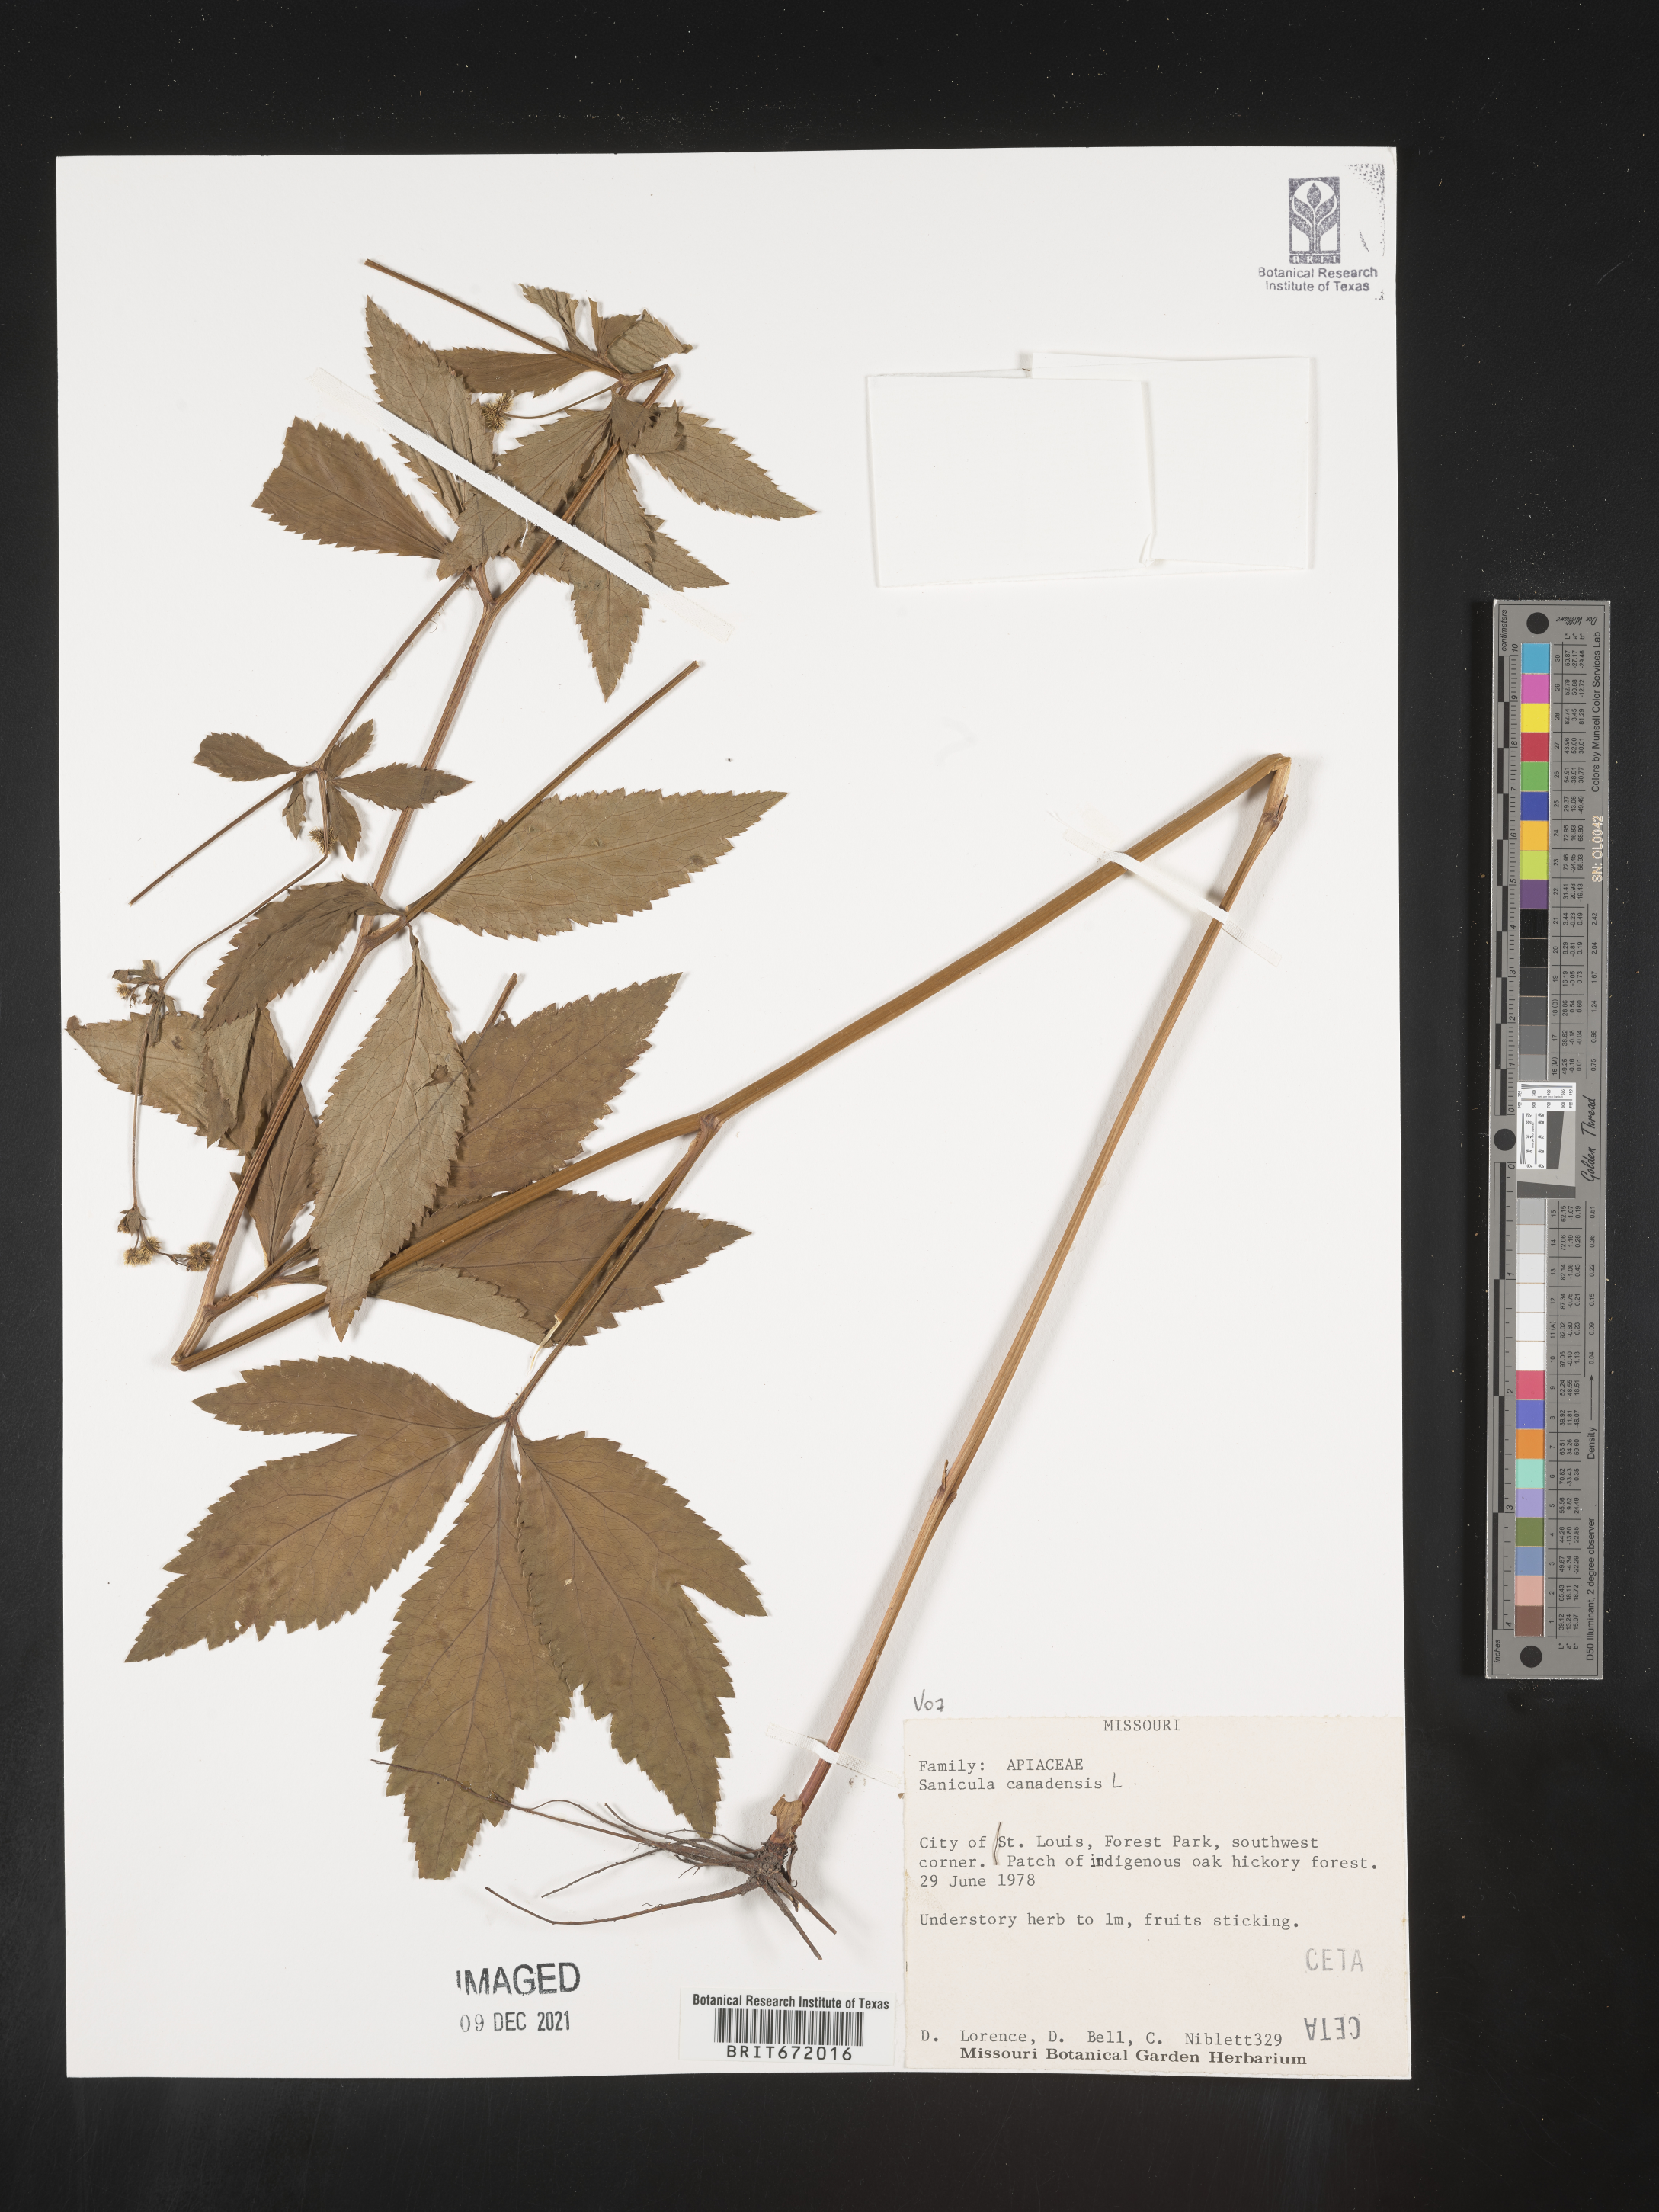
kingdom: Plantae
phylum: Tracheophyta
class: Magnoliopsida
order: Apiales
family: Apiaceae
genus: Sanicula
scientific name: Sanicula canadensis
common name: Canada sanicle
